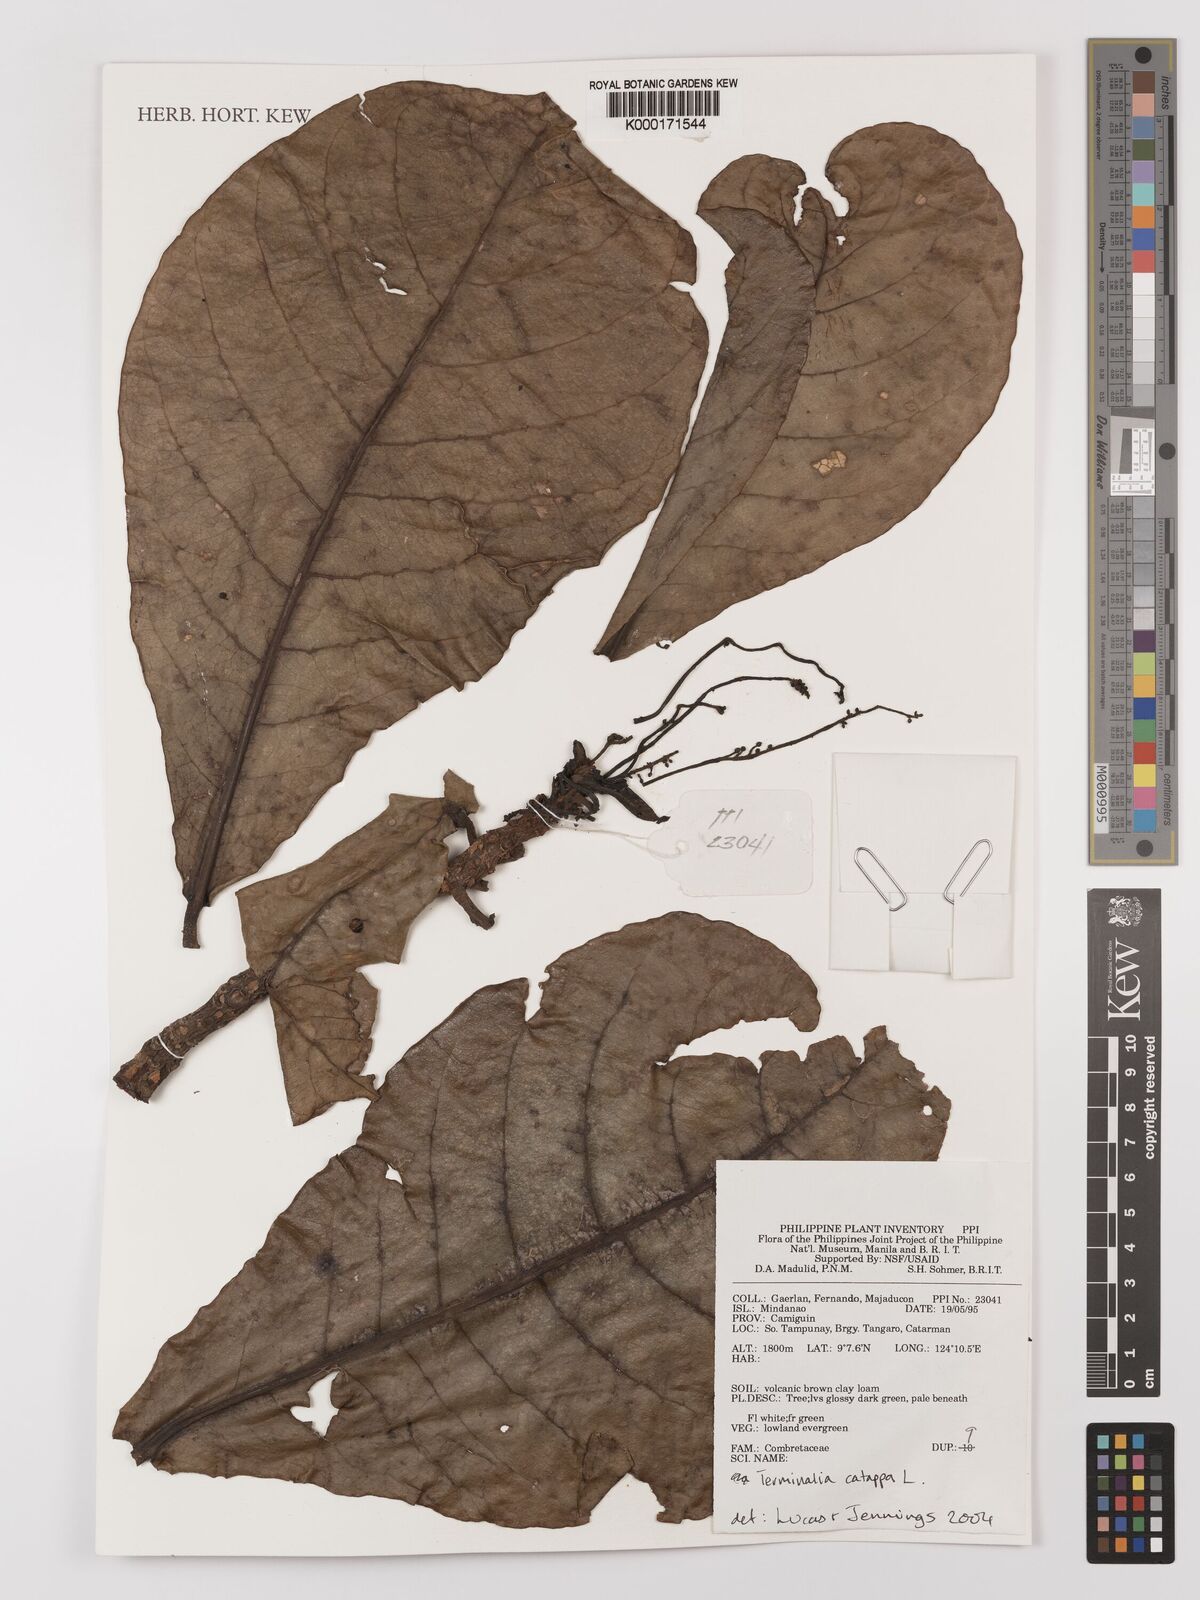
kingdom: Plantae
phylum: Tracheophyta
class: Magnoliopsida
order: Myrtales
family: Combretaceae
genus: Terminalia
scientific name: Terminalia catappa
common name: Tropical almond
